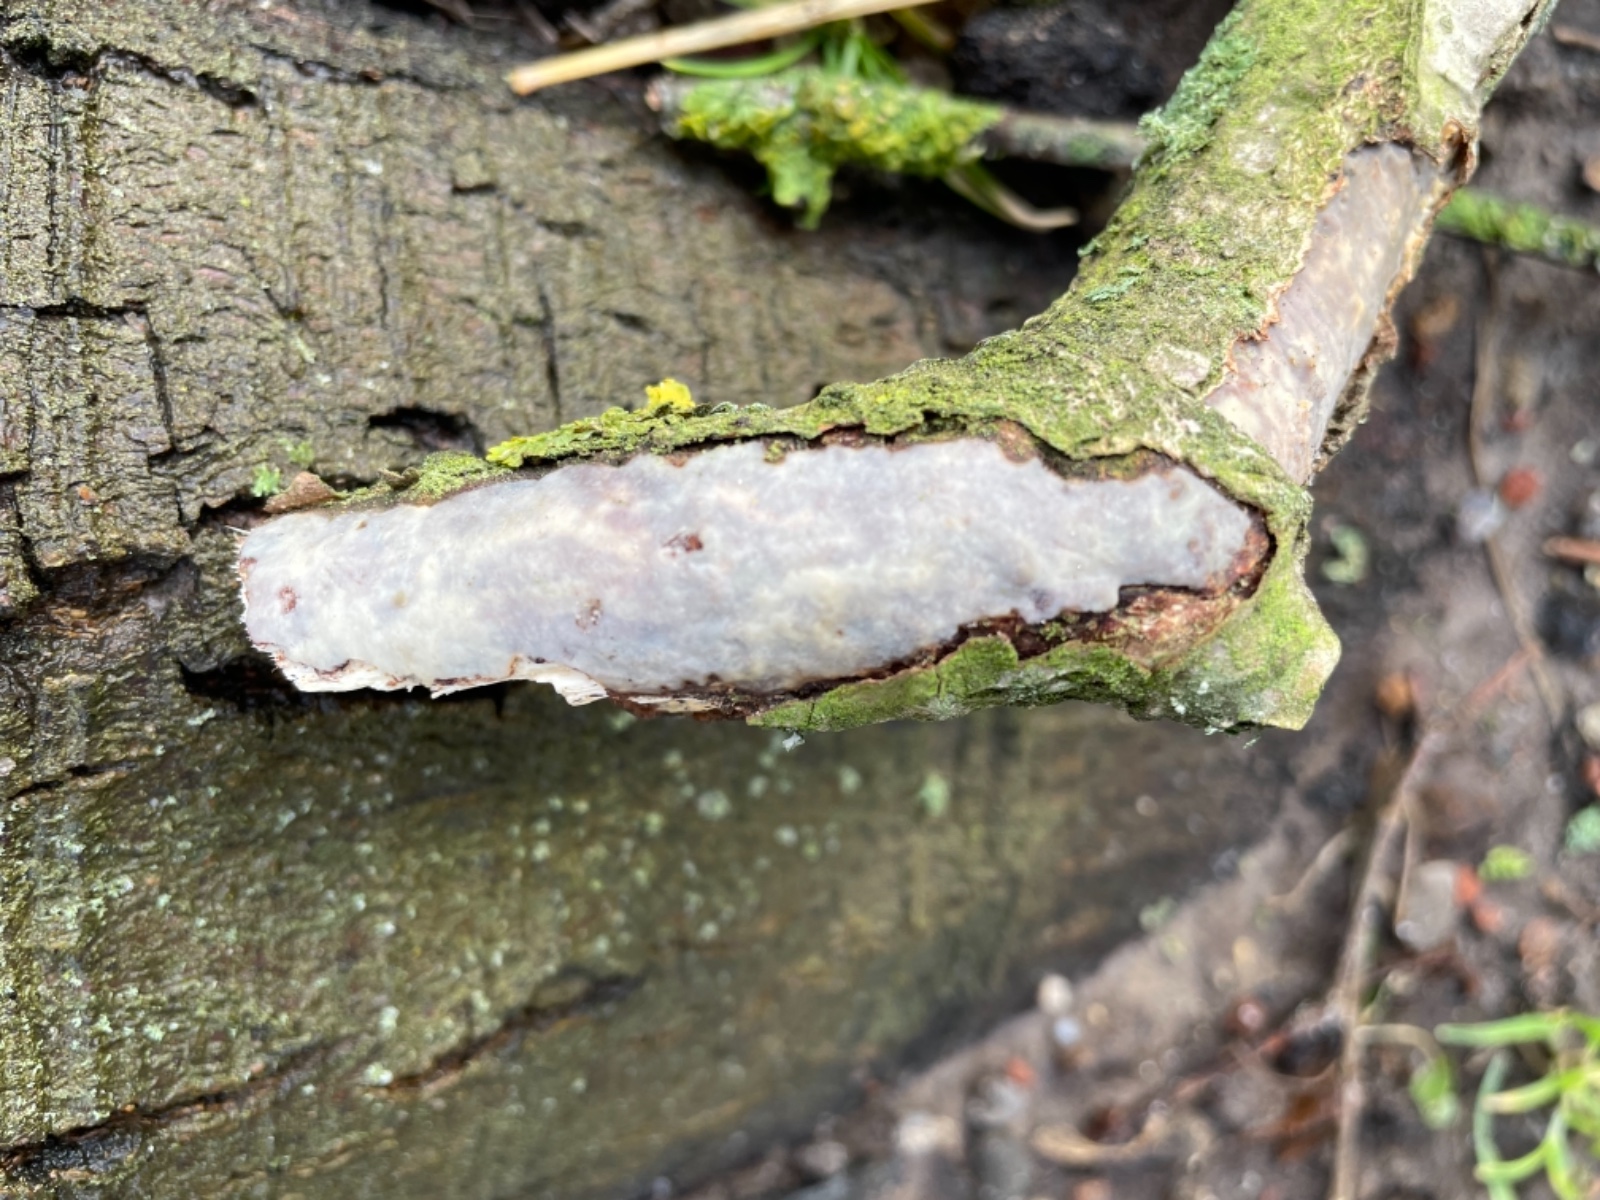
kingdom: Fungi
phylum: Basidiomycota
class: Agaricomycetes
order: Corticiales
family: Vuilleminiaceae
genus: Vuilleminia
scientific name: Vuilleminia comedens
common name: almindelig barksprænger
